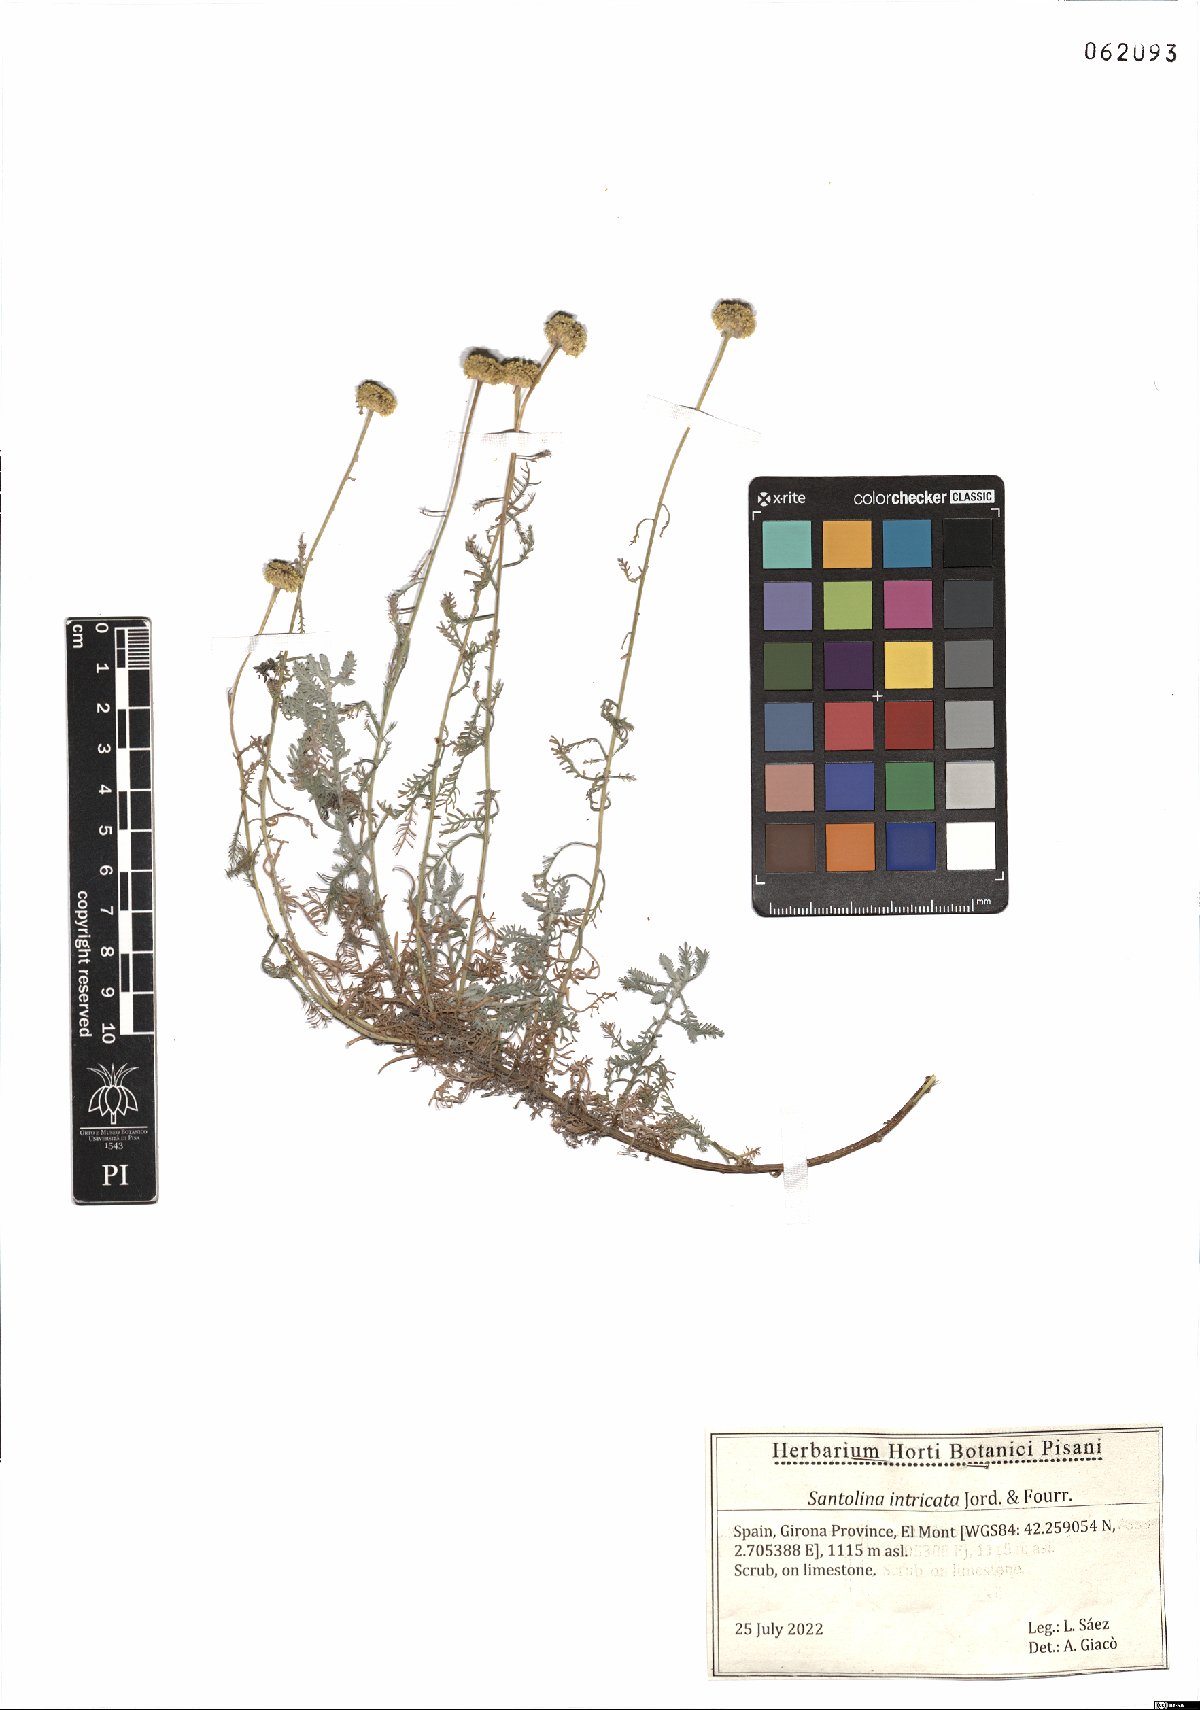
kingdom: Plantae
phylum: Tracheophyta
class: Magnoliopsida
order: Asterales
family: Asteraceae
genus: Santolina
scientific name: Santolina benthamiana
